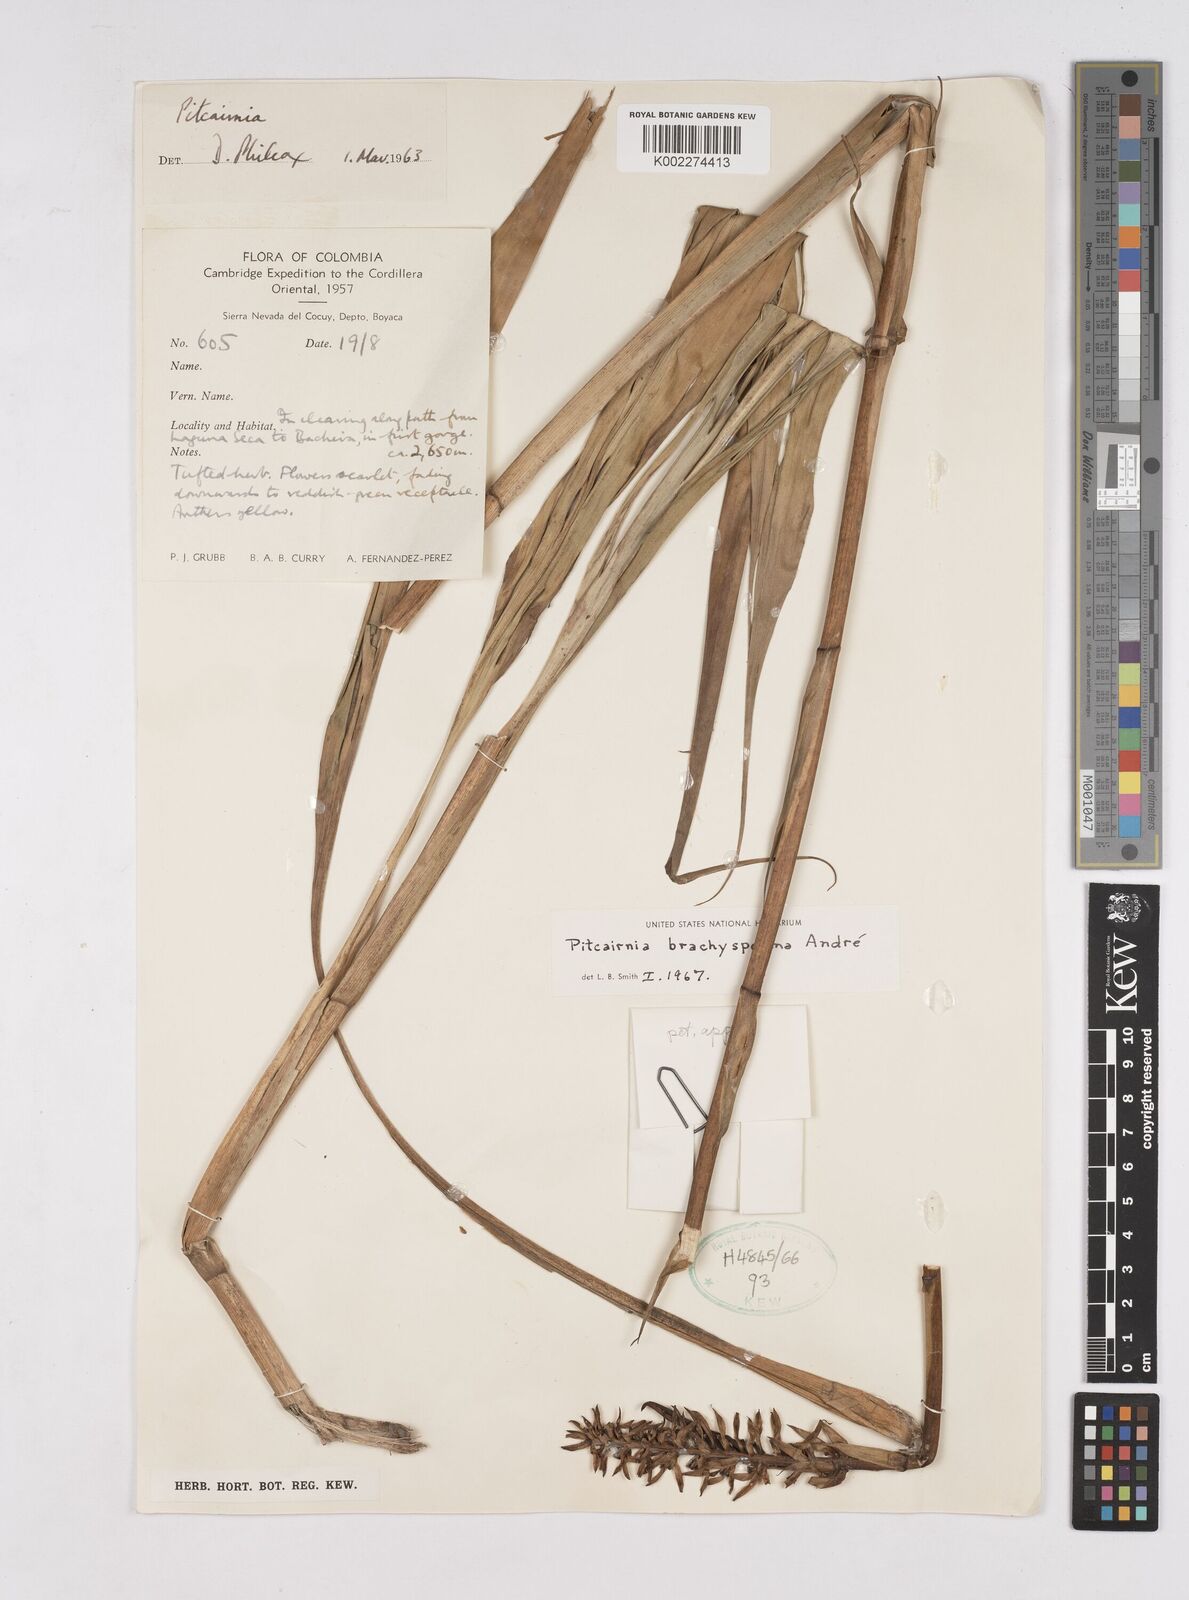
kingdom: Plantae
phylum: Tracheophyta
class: Liliopsida
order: Poales
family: Bromeliaceae
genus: Pitcairnia
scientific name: Pitcairnia brachysperma
